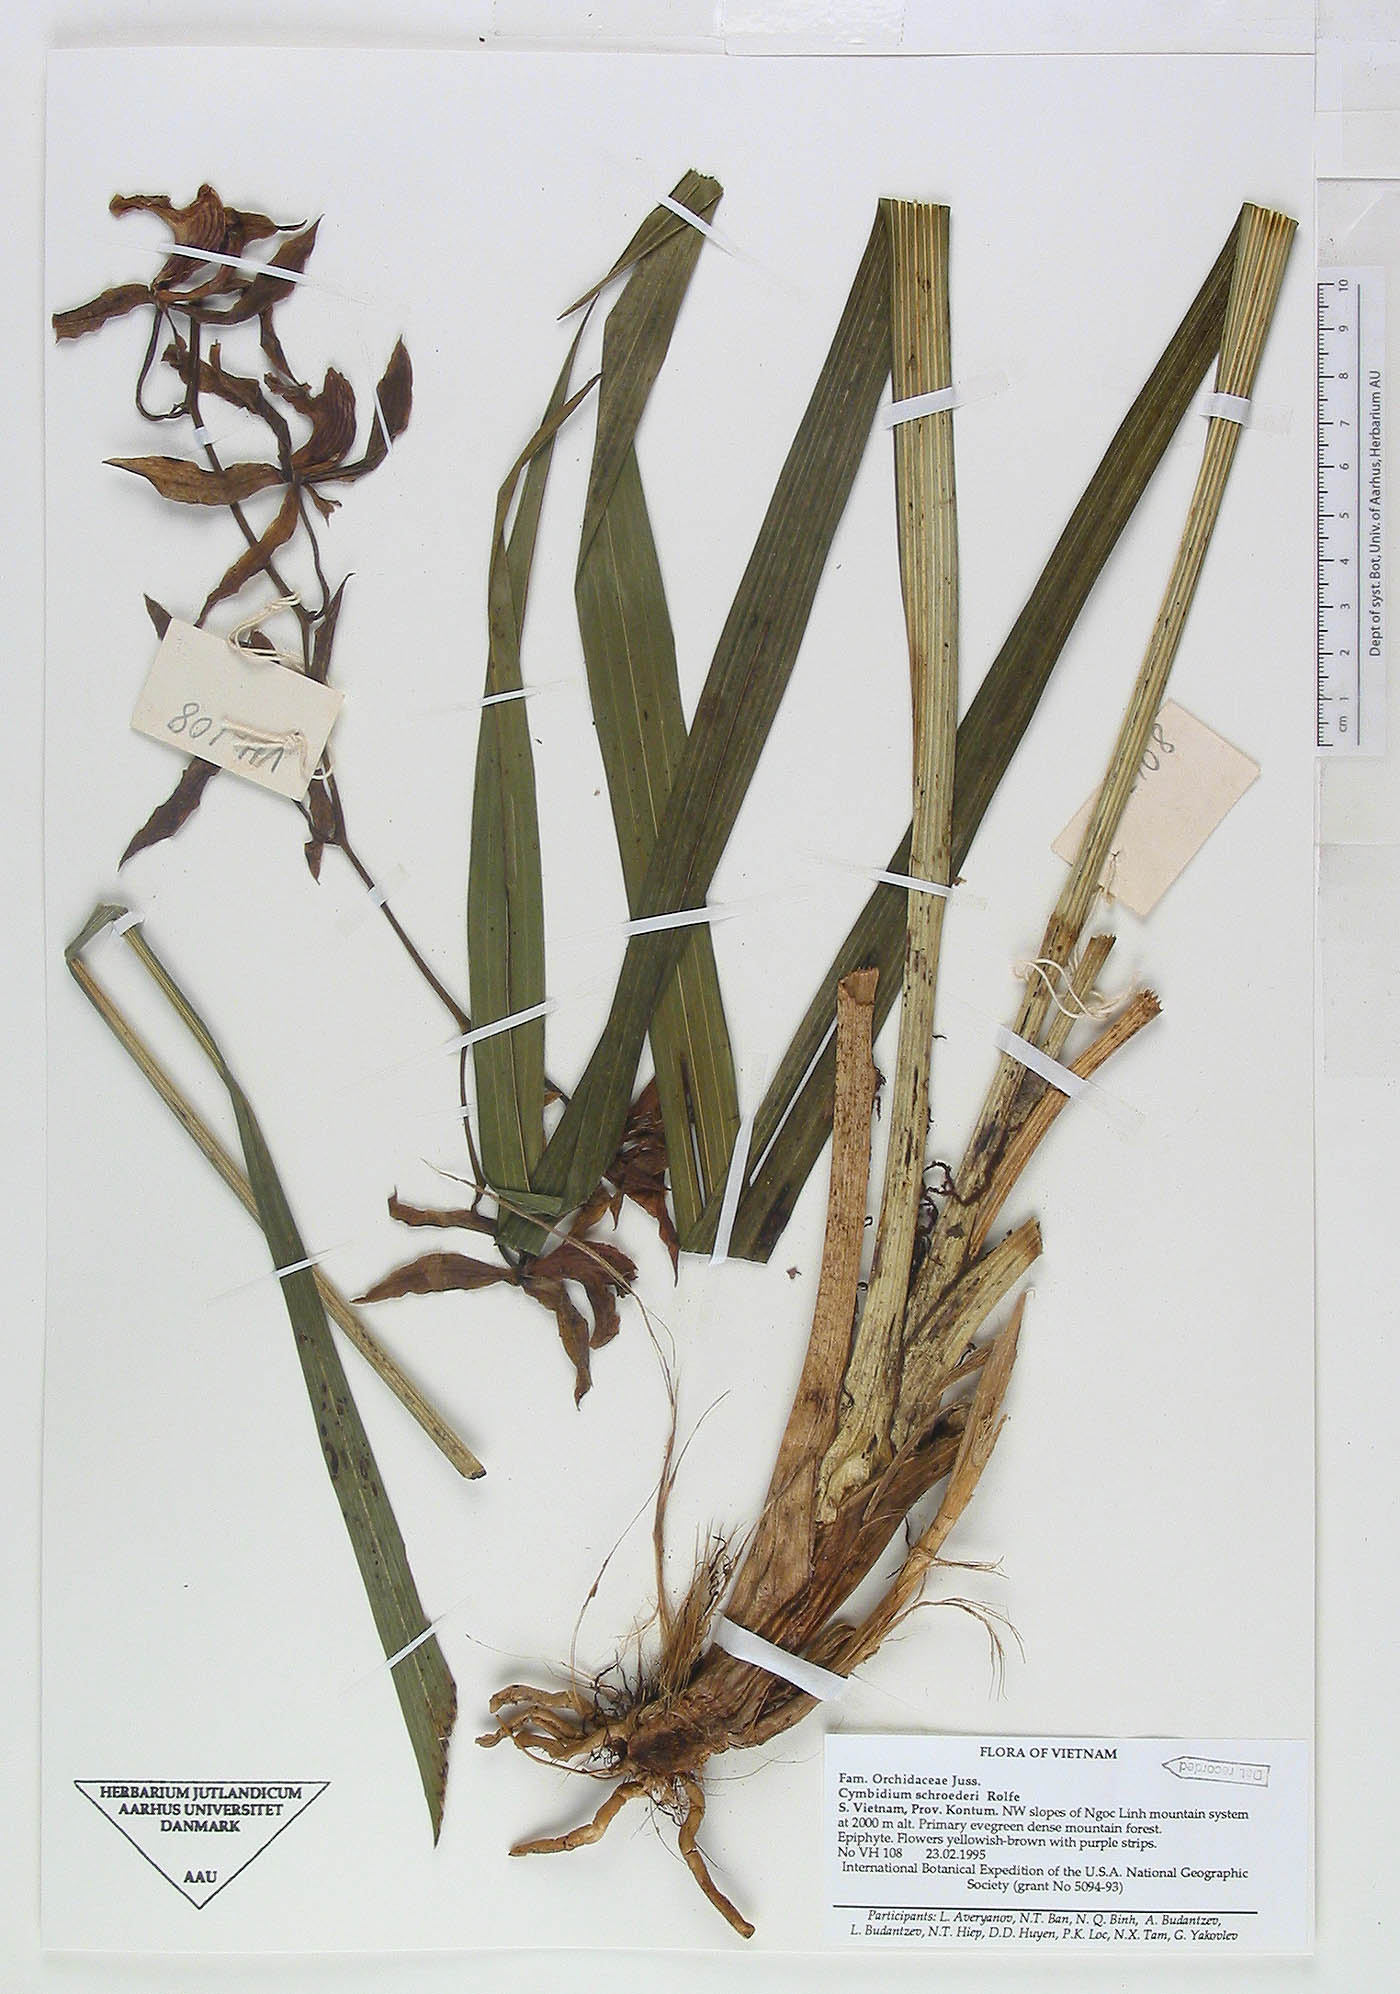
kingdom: Plantae
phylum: Tracheophyta
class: Liliopsida
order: Asparagales
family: Orchidaceae
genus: Cymbidium
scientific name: Cymbidium schroederi
